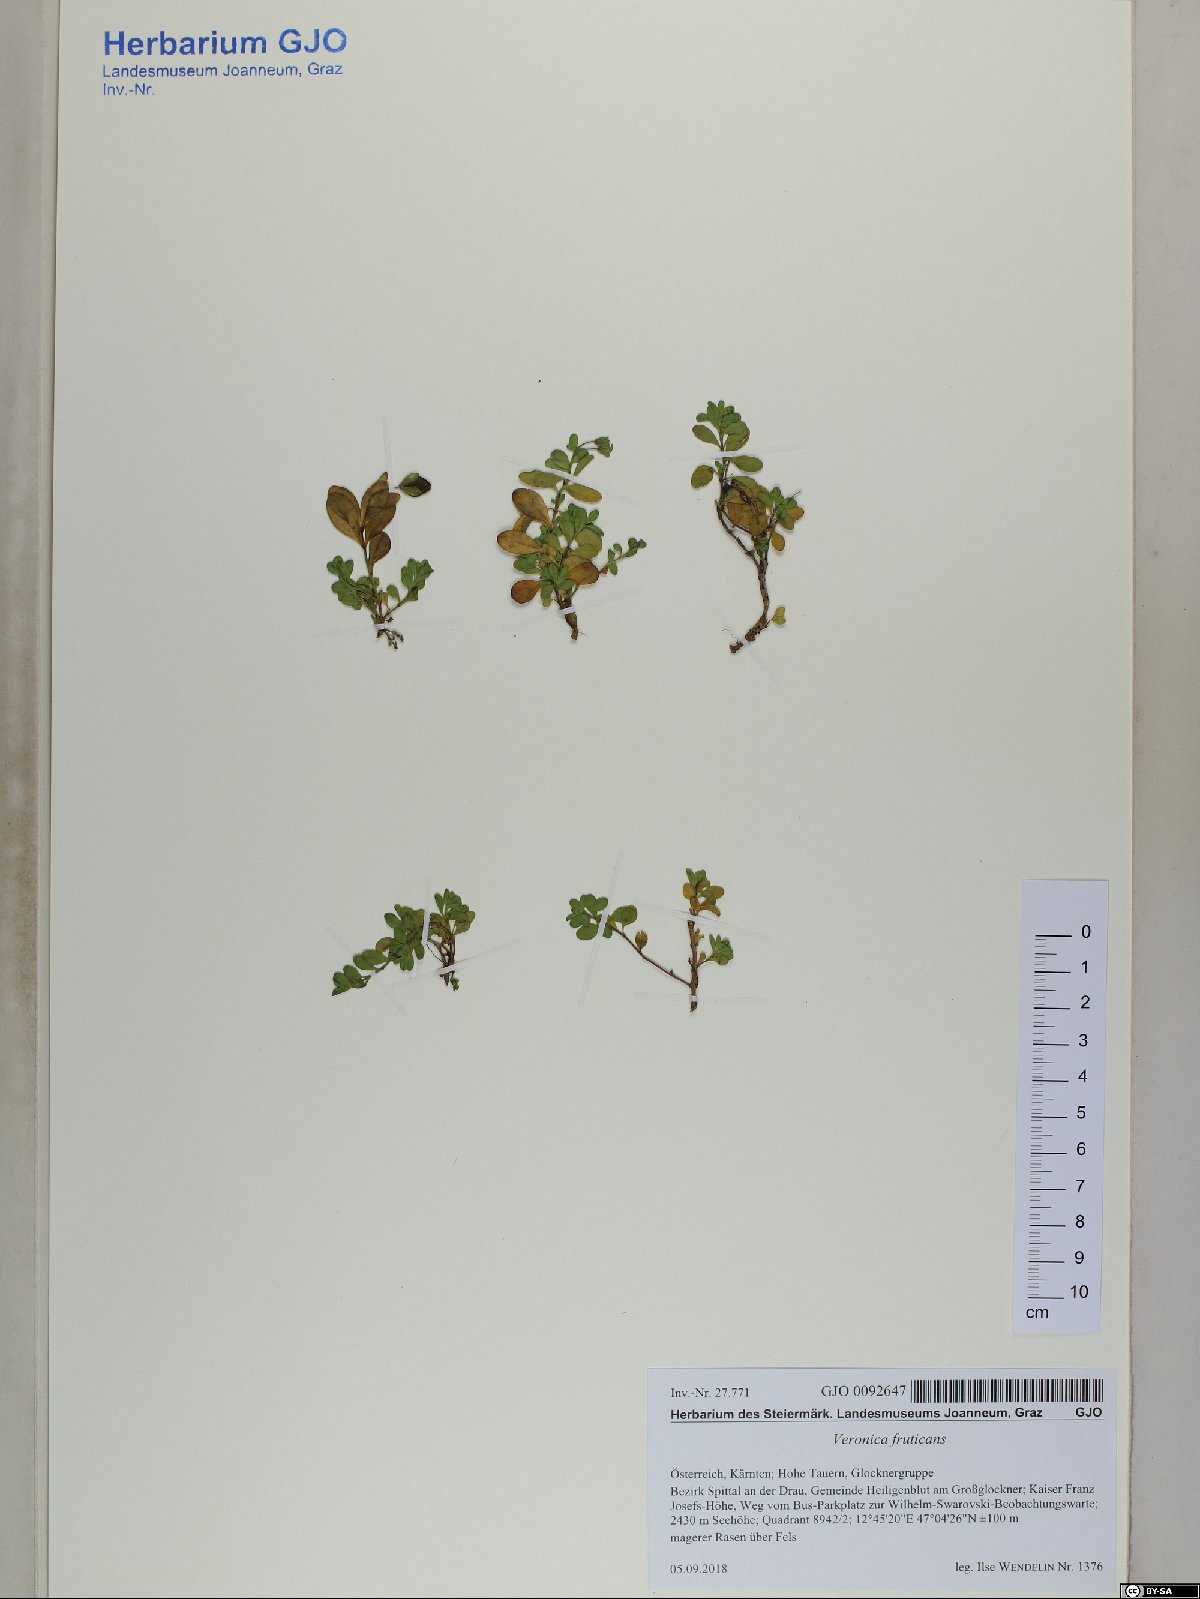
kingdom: Plantae
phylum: Tracheophyta
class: Magnoliopsida
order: Lamiales
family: Plantaginaceae
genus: Veronica
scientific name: Veronica fruticans
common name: Rock speedwell
